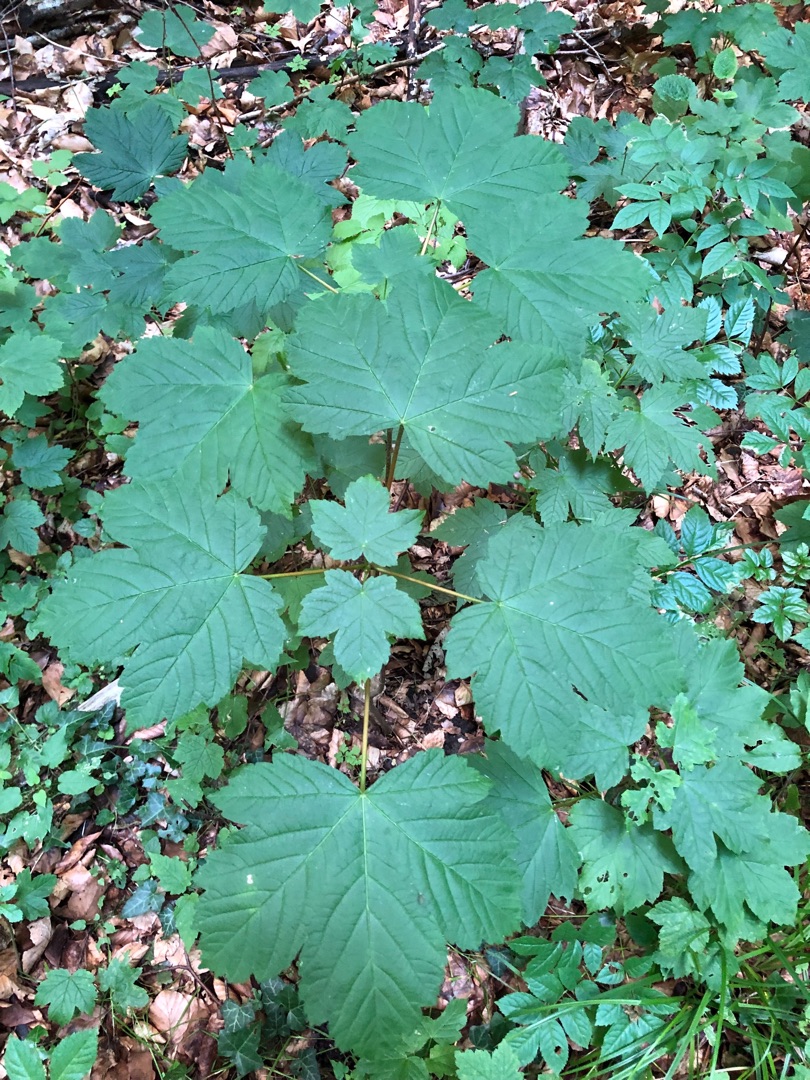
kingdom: Plantae
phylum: Tracheophyta
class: Magnoliopsida
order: Sapindales
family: Sapindaceae
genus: Acer
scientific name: Acer pseudoplatanus
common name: Ahorn
